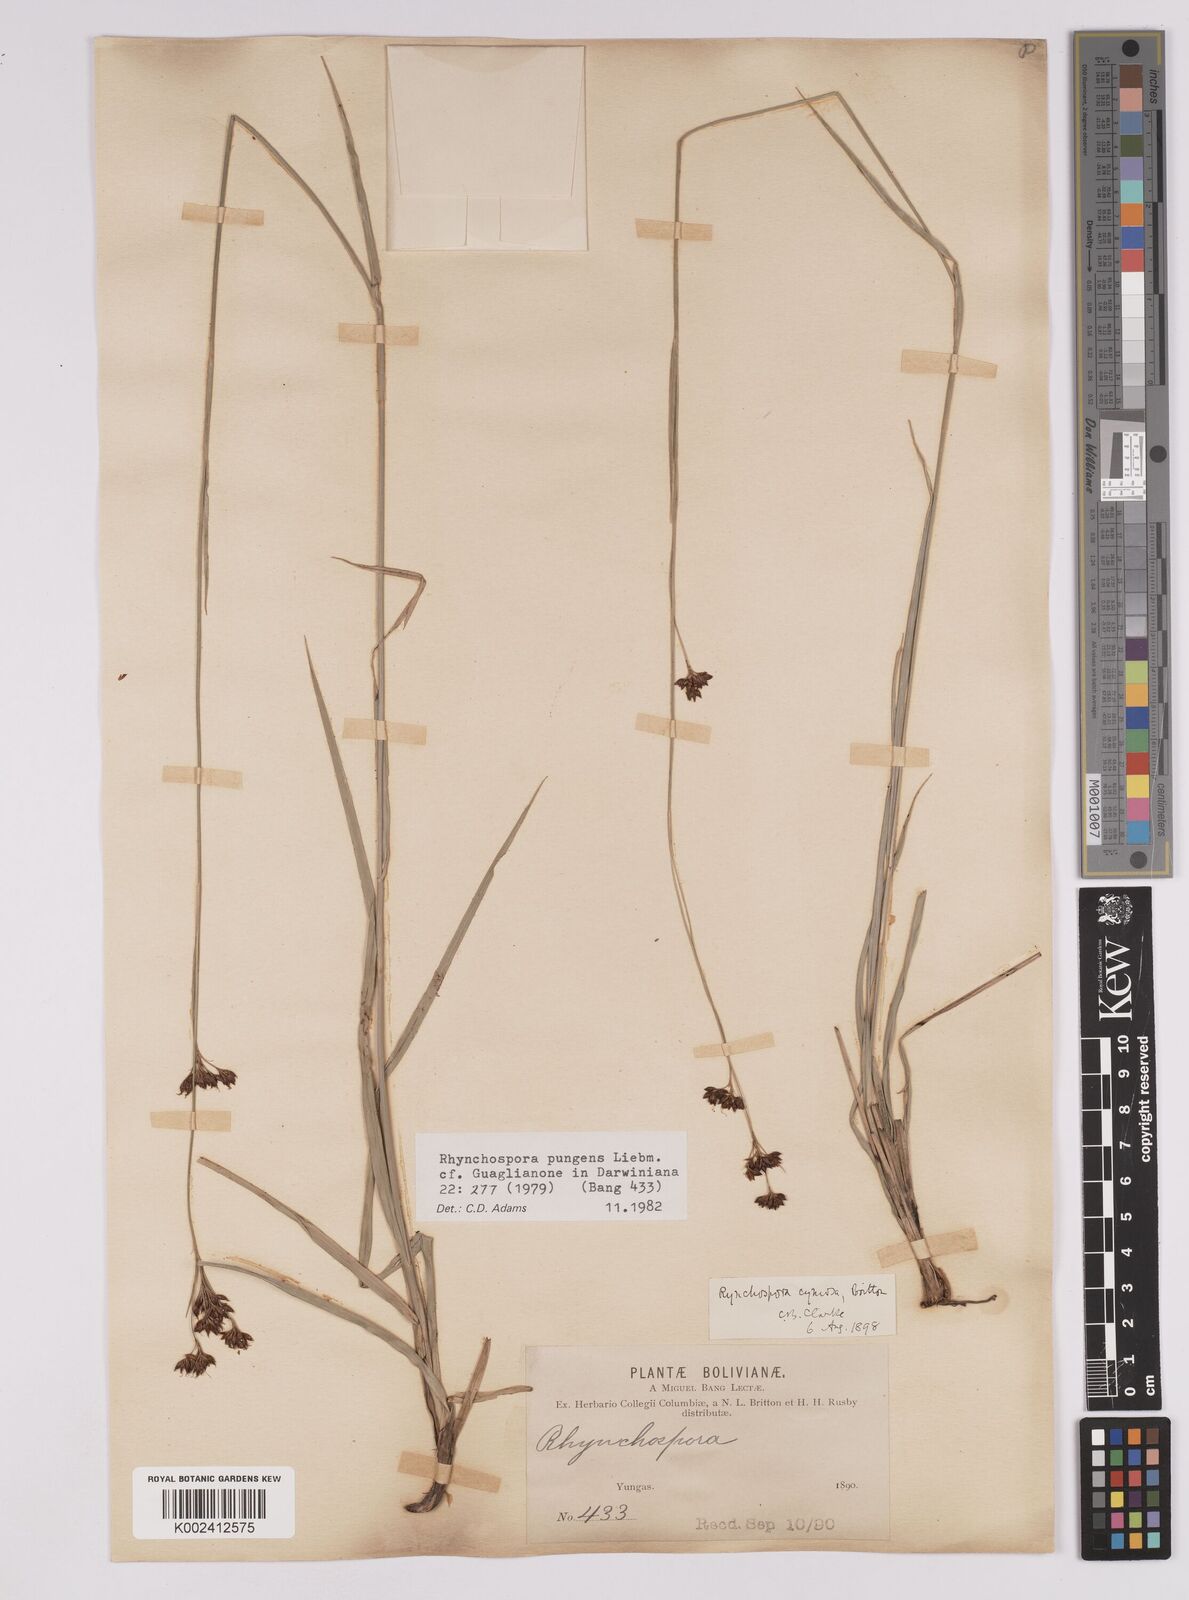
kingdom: Plantae
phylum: Tracheophyta
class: Liliopsida
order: Poales
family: Cyperaceae
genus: Rhynchospora
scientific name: Rhynchospora rugosa
